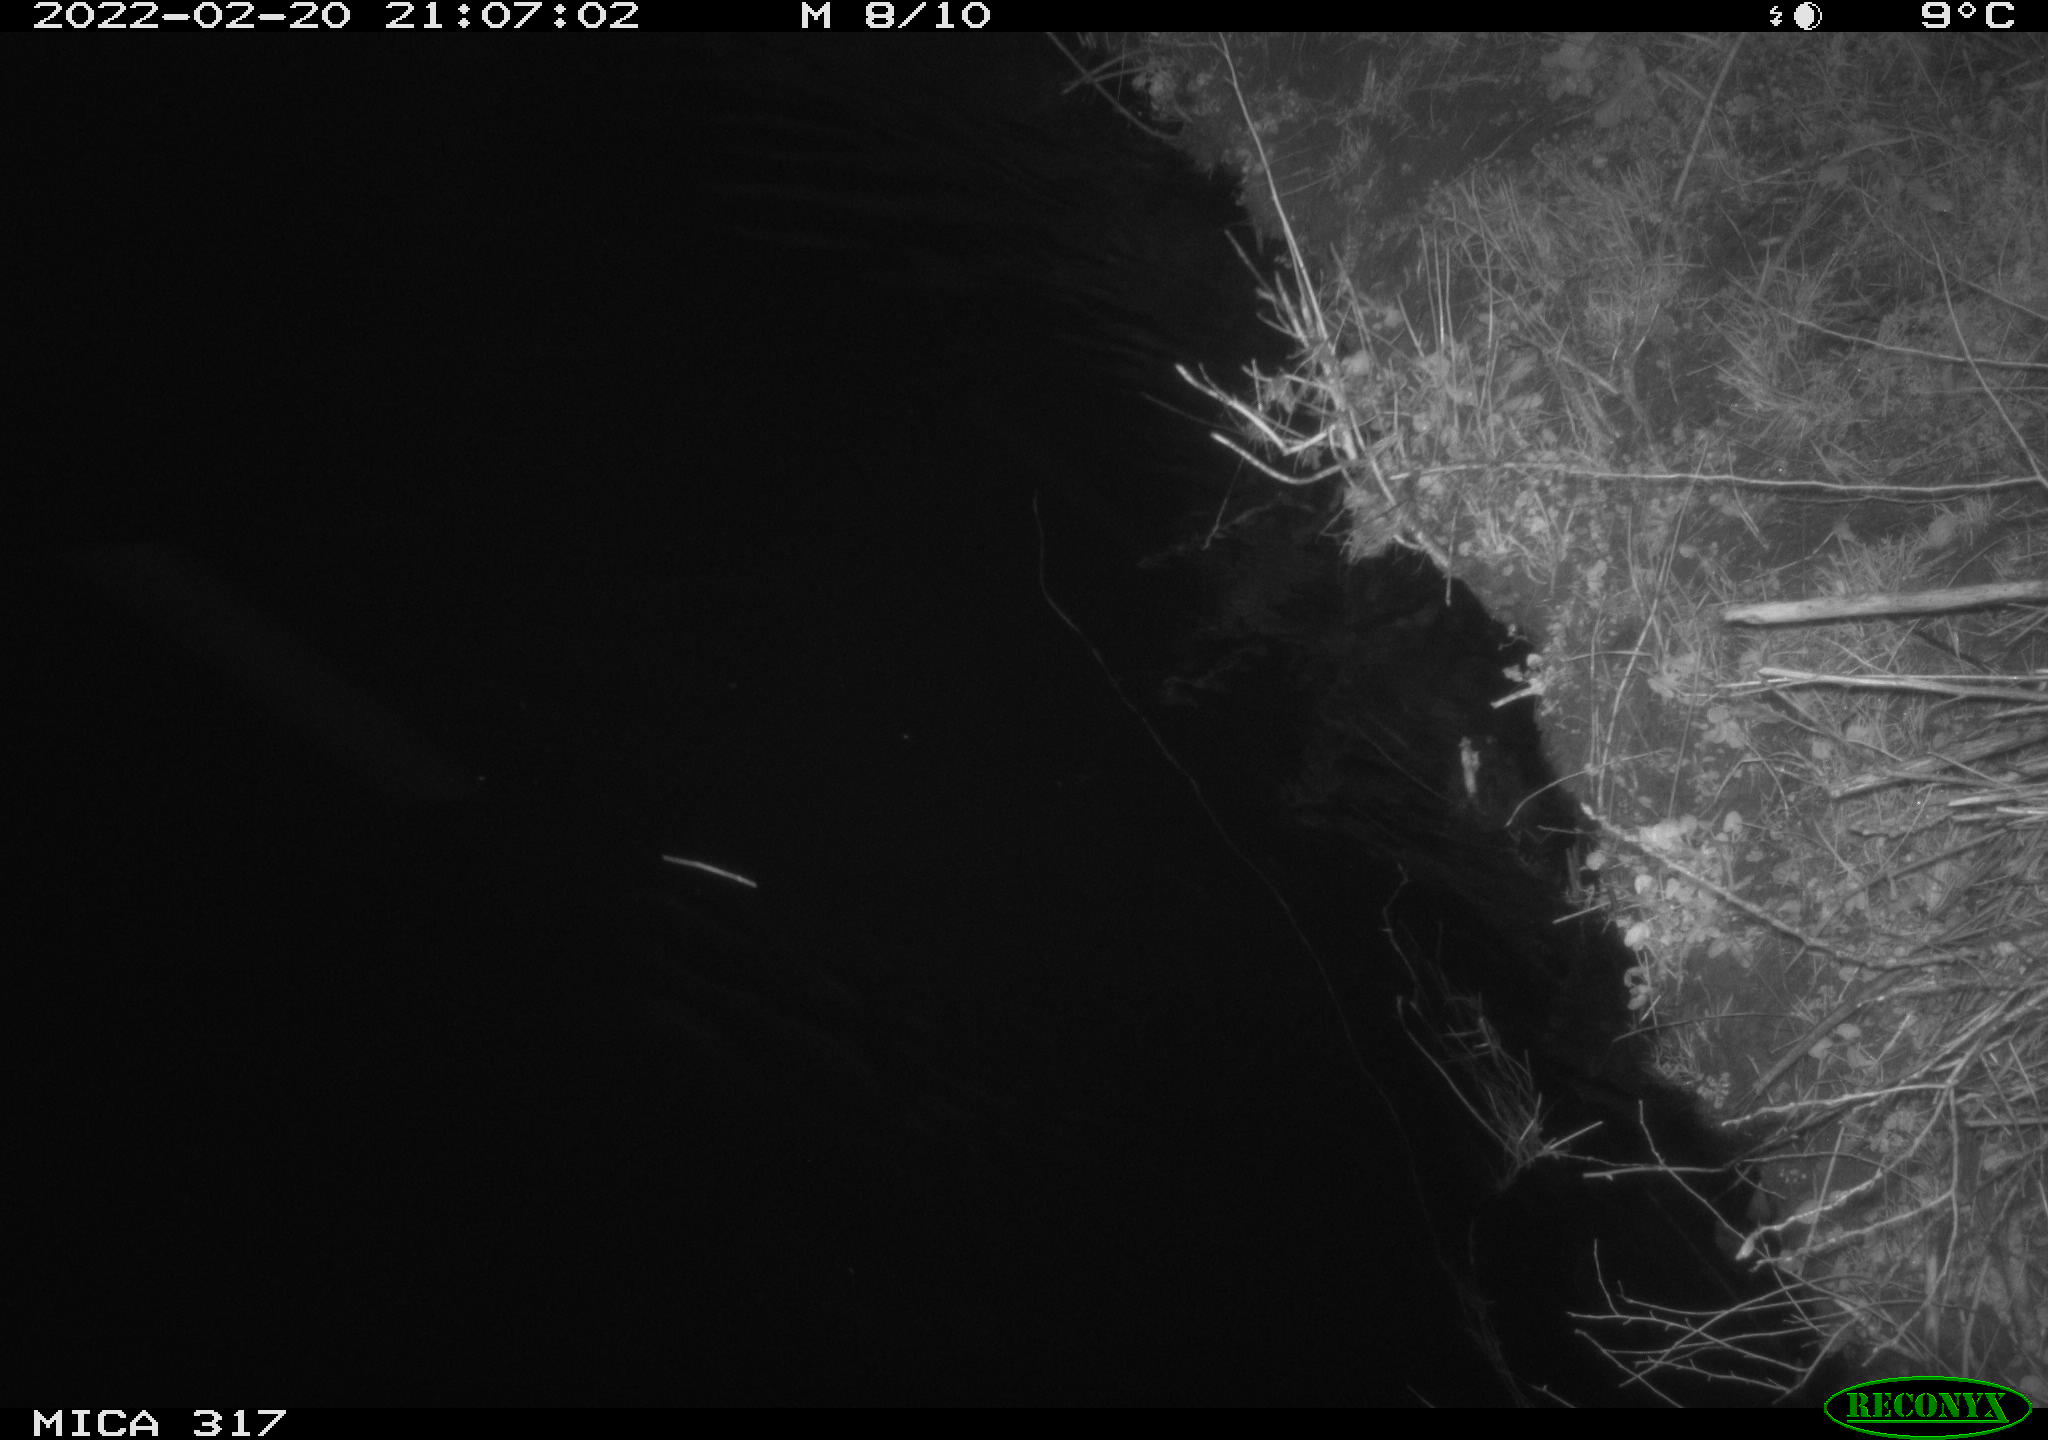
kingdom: Animalia
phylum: Chordata
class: Mammalia
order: Rodentia
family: Cricetidae
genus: Ondatra
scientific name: Ondatra zibethicus
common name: Muskrat
